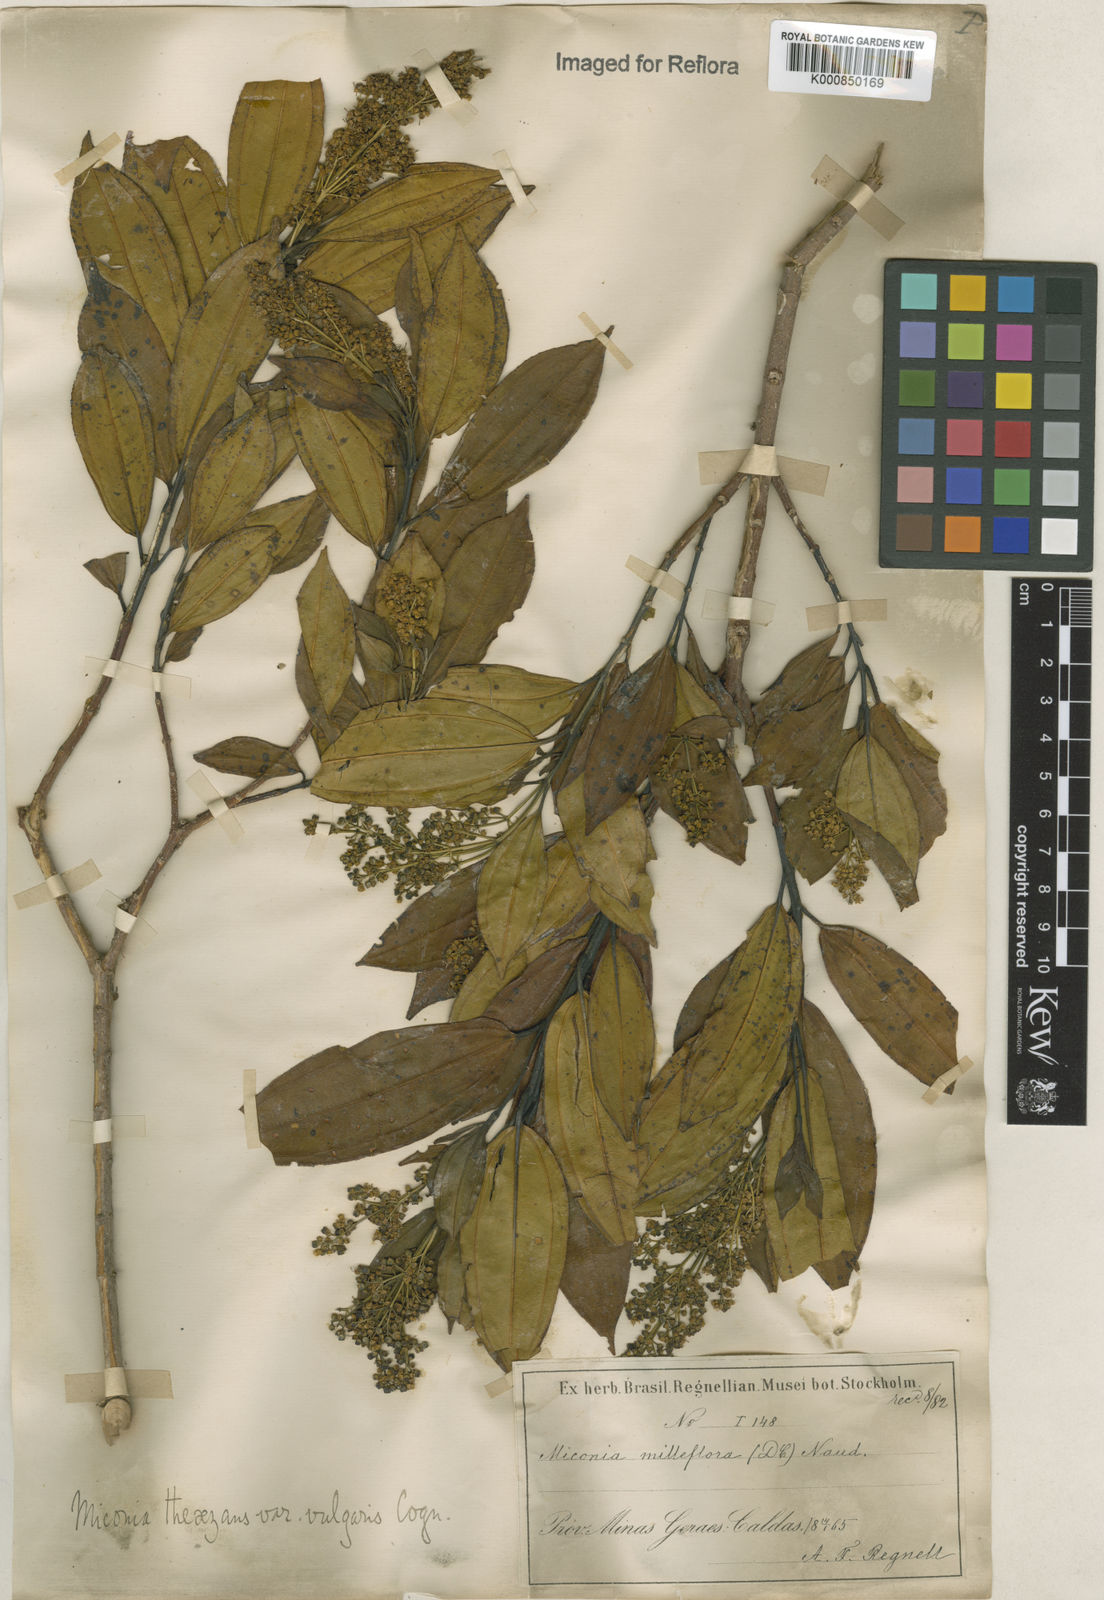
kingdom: Plantae
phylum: Tracheophyta
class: Magnoliopsida
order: Myrtales
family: Melastomataceae
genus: Miconia
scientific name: Miconia
